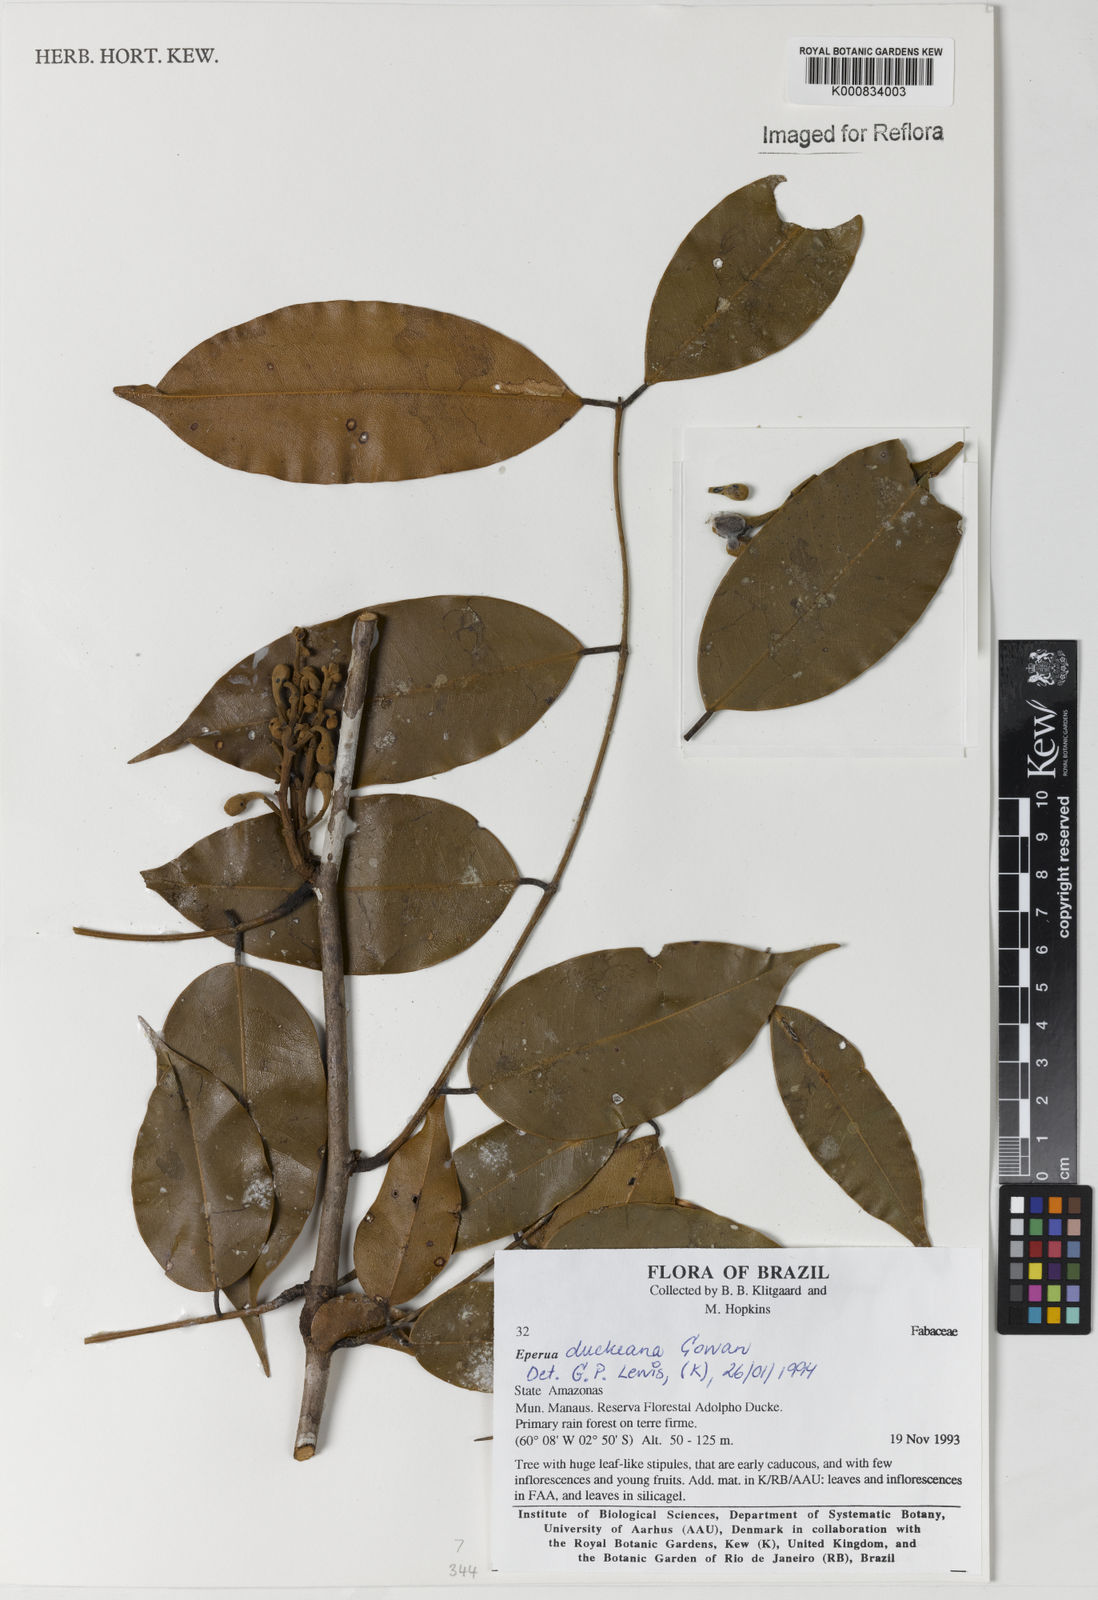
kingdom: Plantae
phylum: Tracheophyta
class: Magnoliopsida
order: Fabales
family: Fabaceae
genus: Eperua
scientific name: Eperua duckeana
